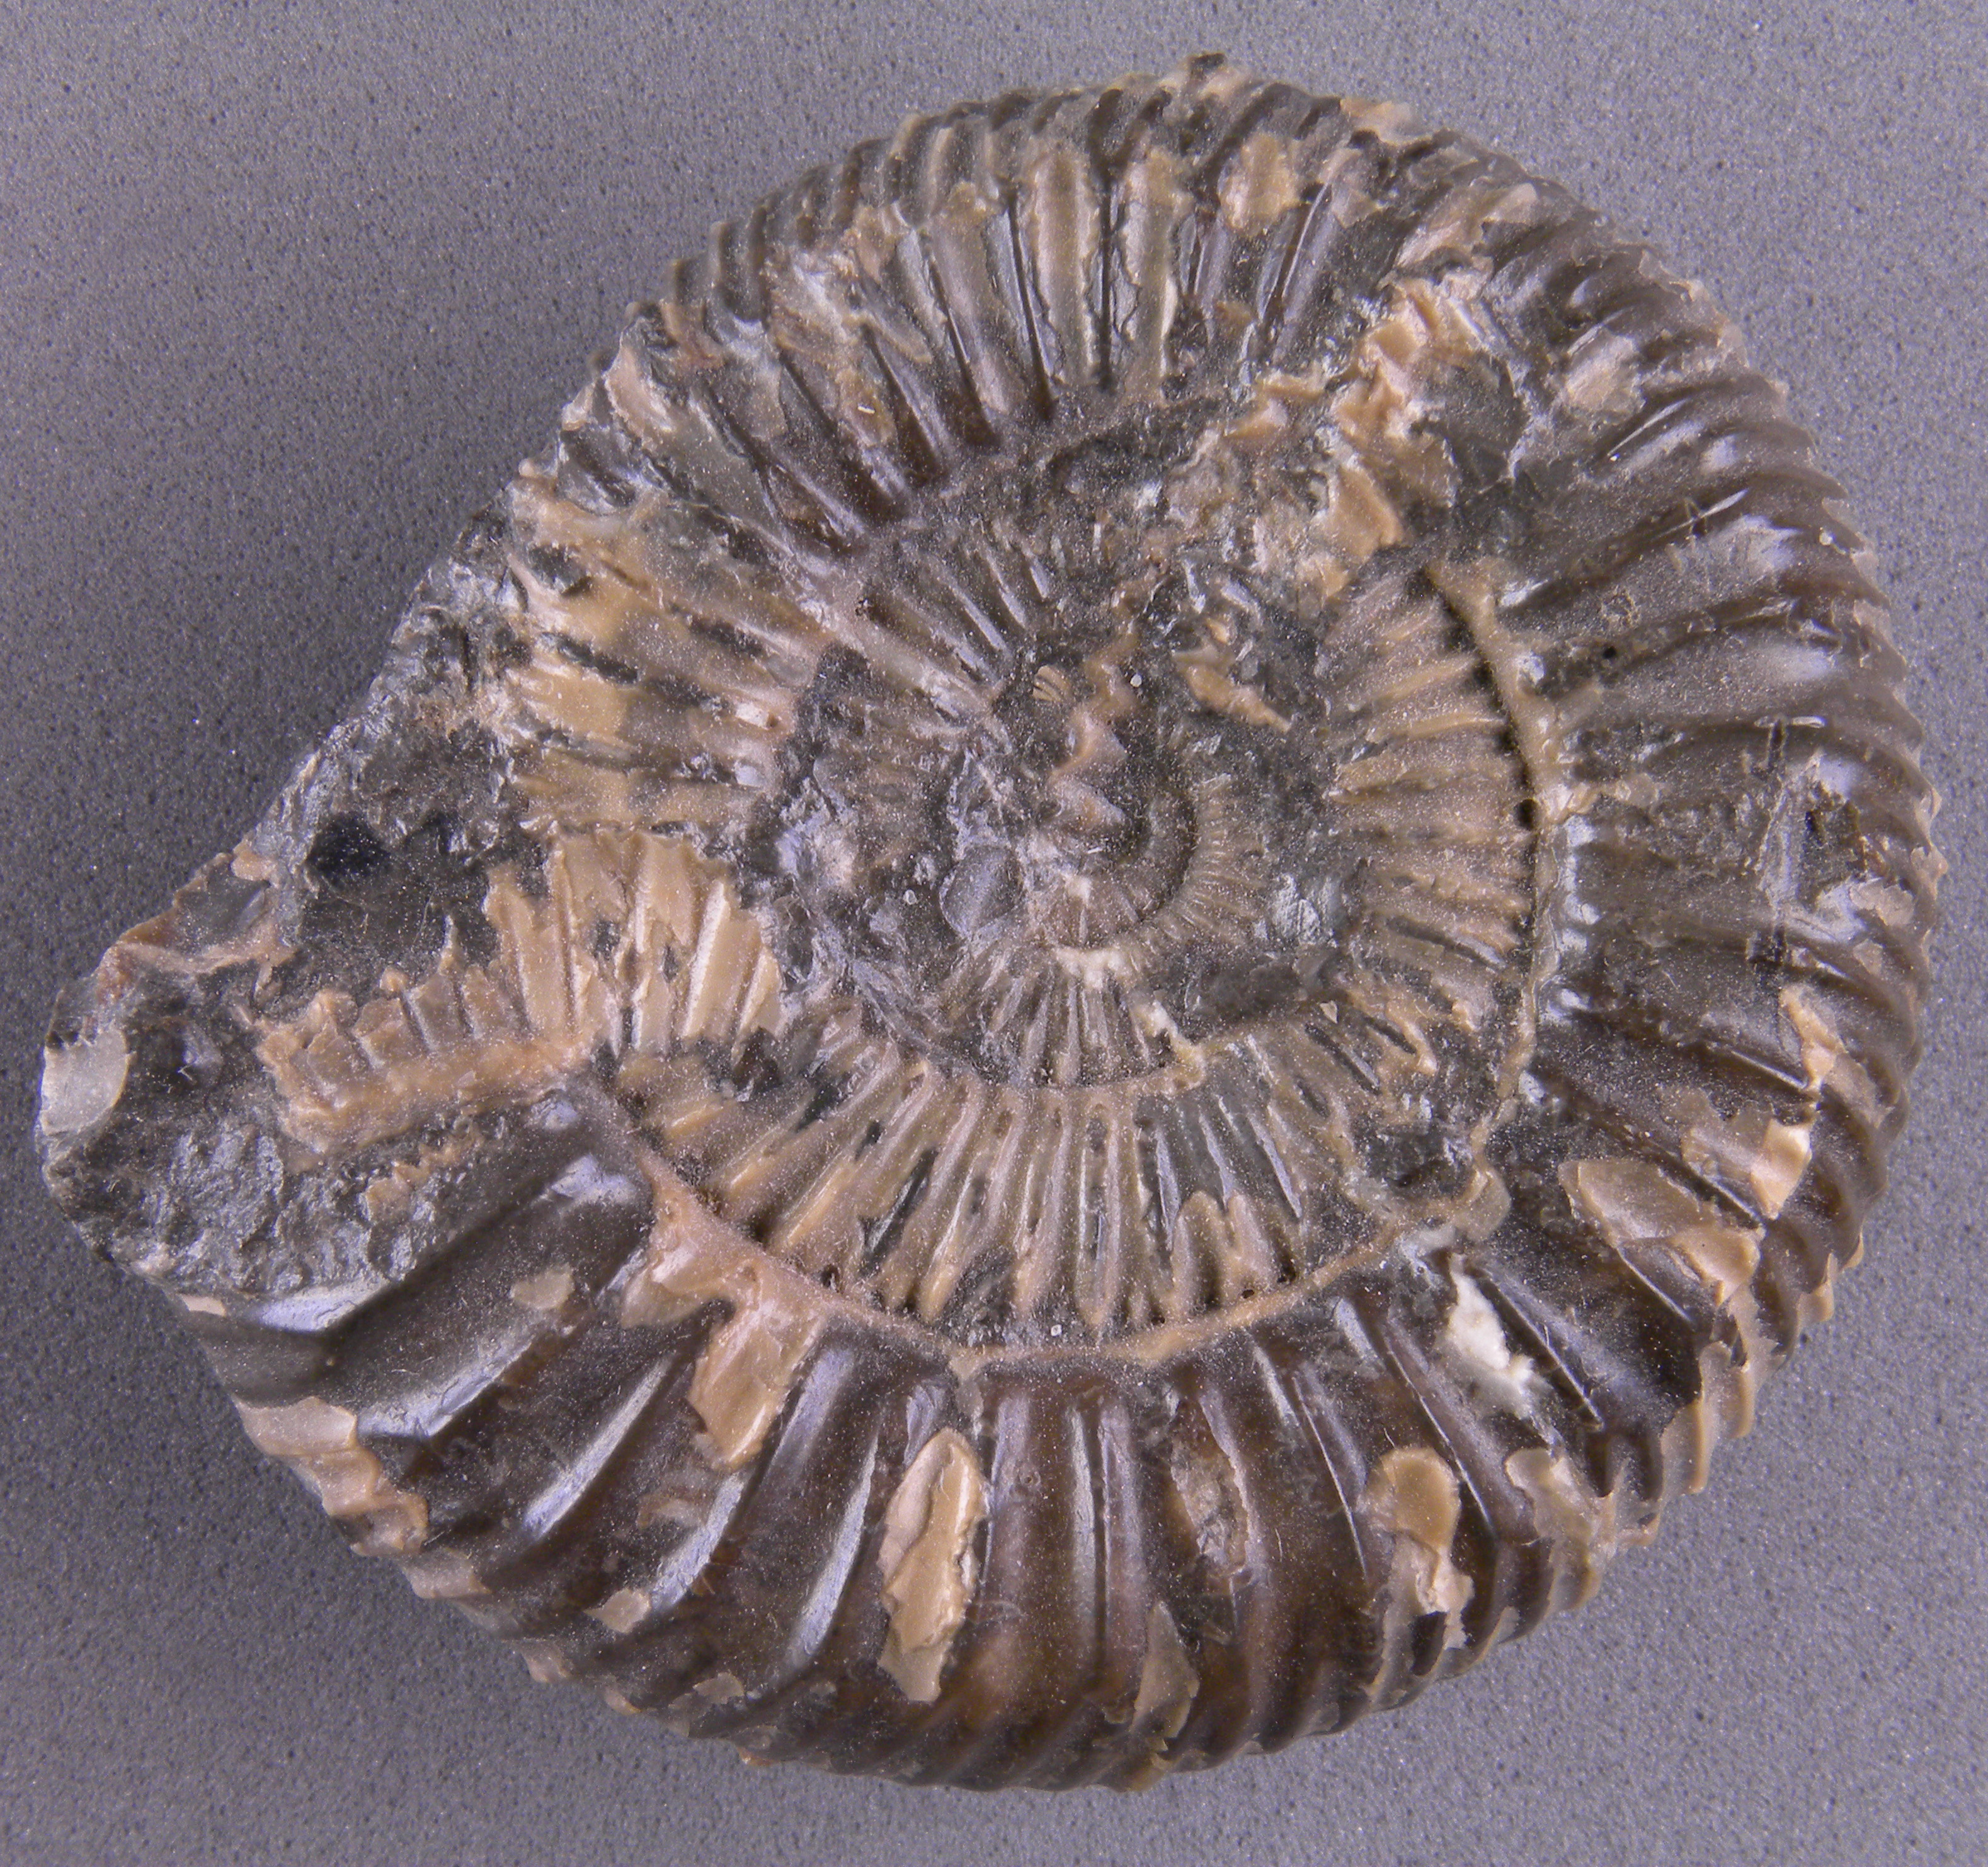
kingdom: Animalia
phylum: Mollusca
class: Cephalopoda
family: Dactylioceratidae
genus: Dactylioceras
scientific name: Dactylioceras athleticum
